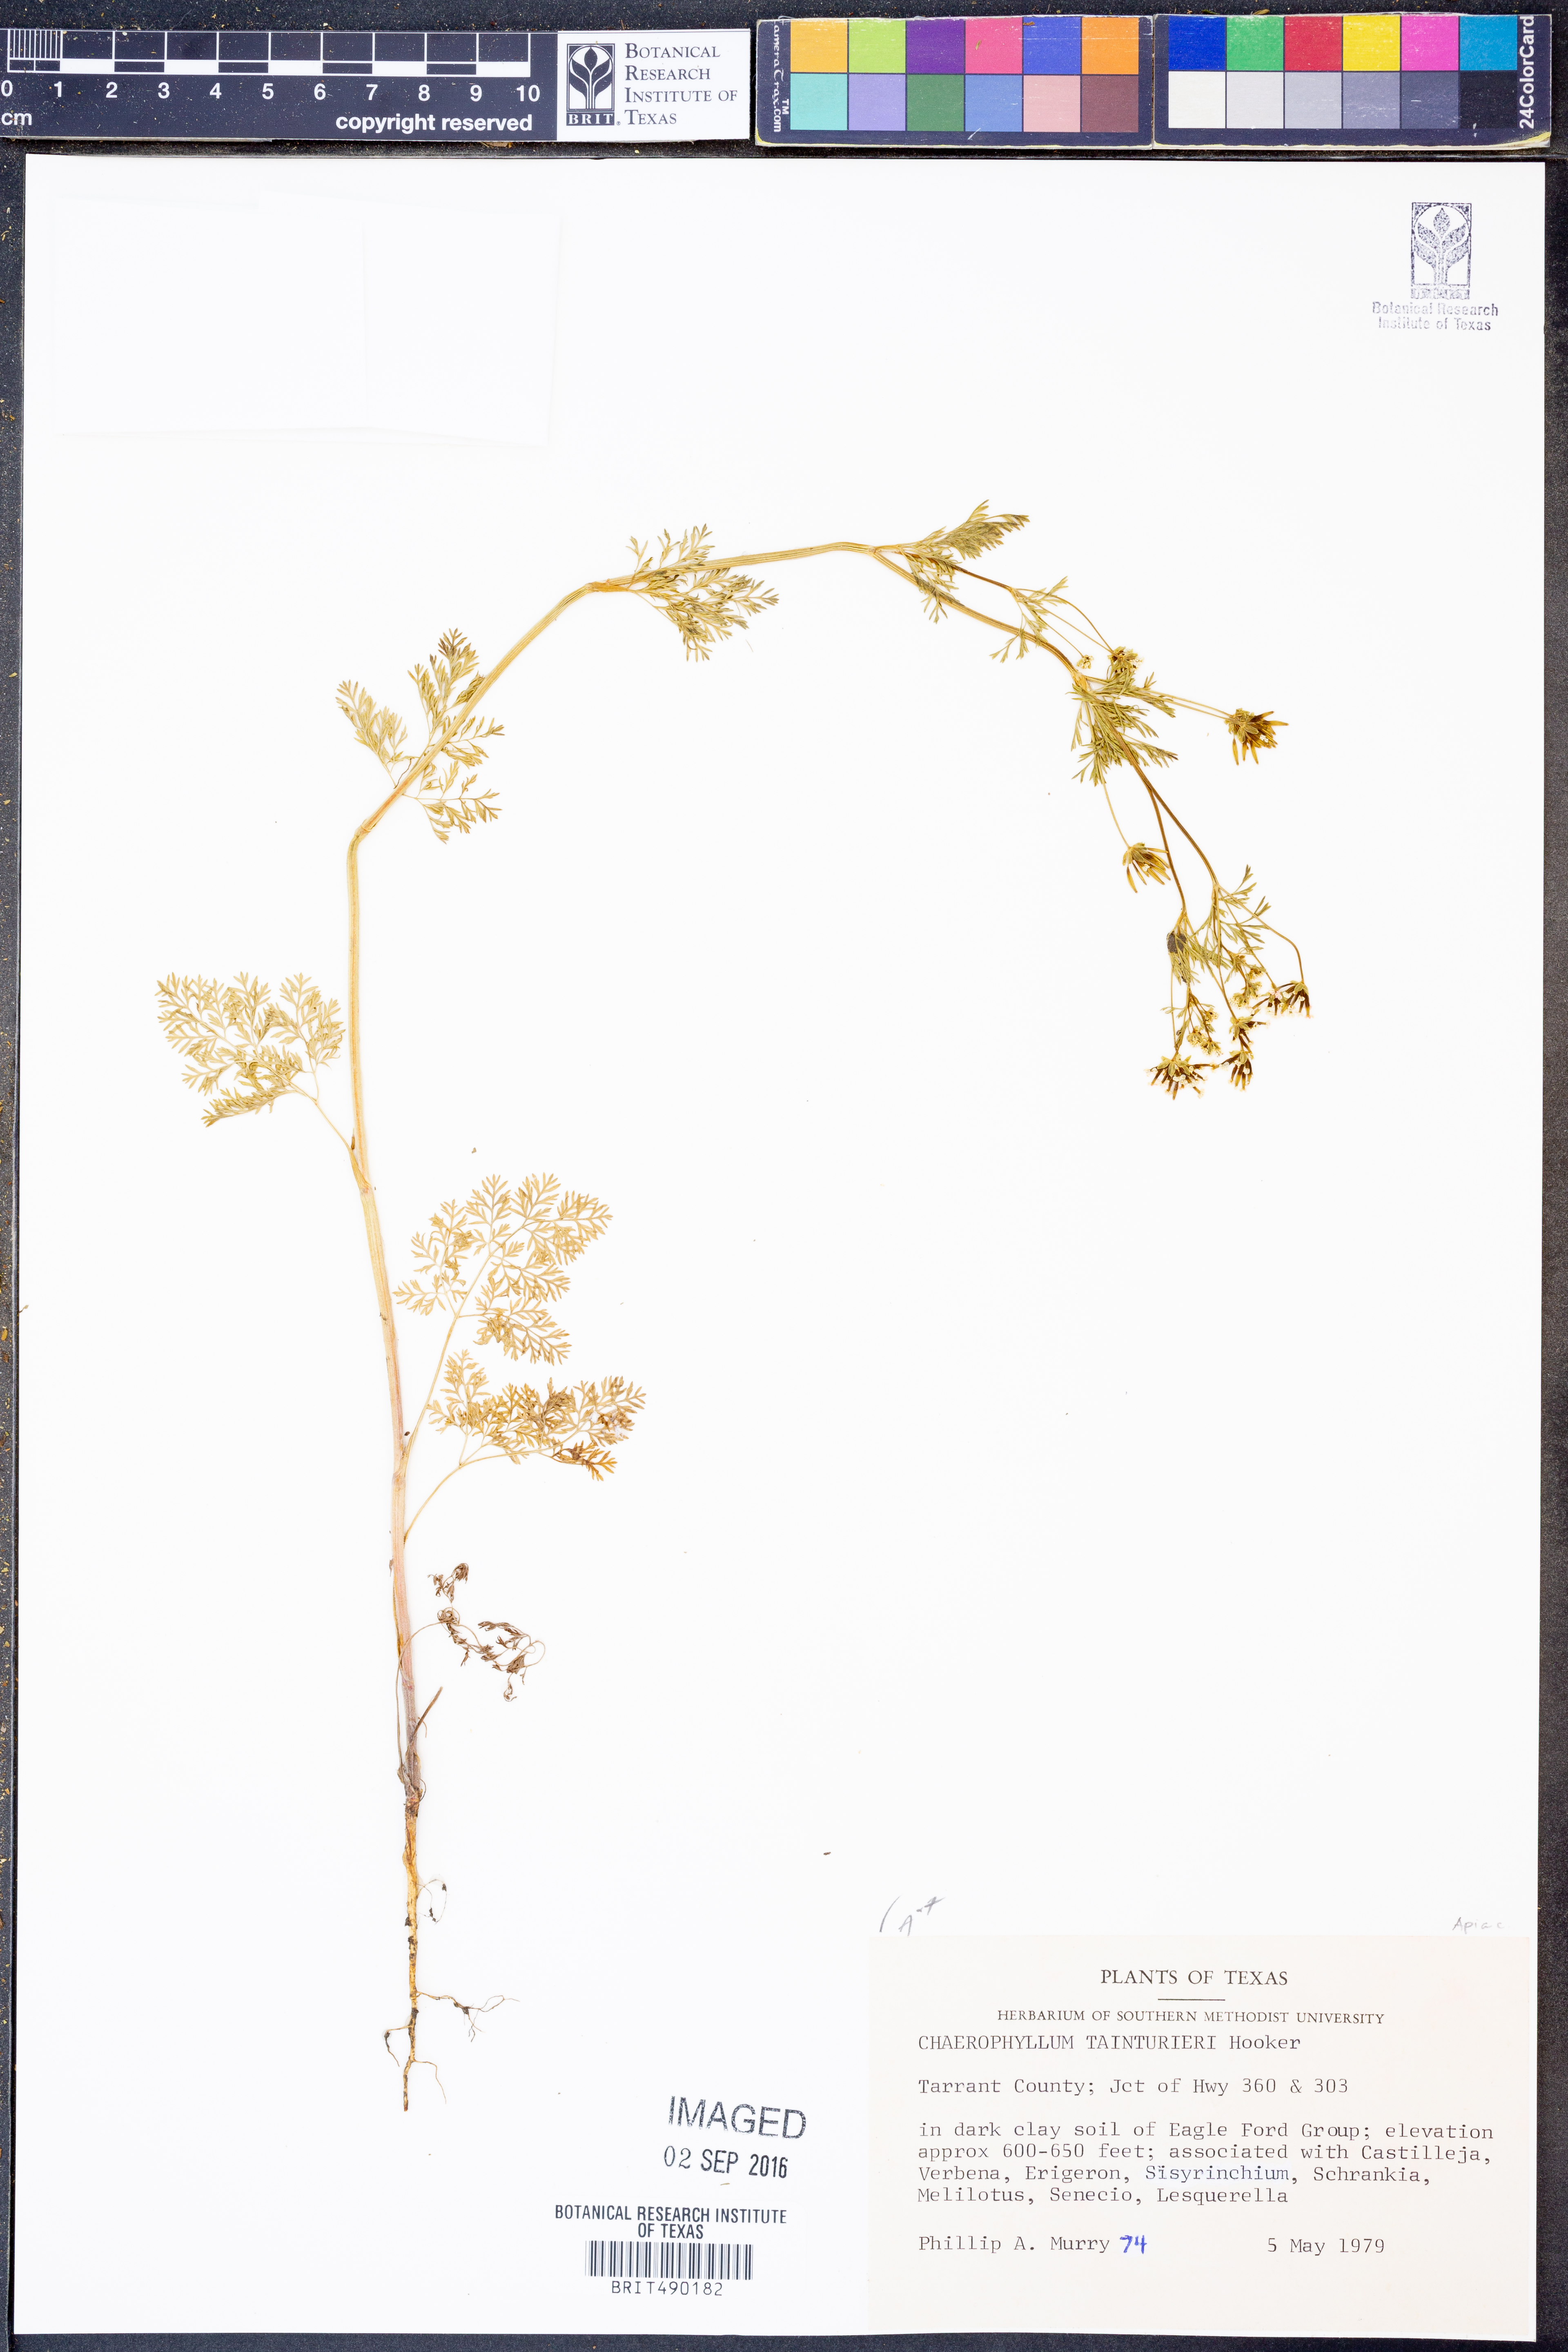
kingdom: Plantae
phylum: Tracheophyta
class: Magnoliopsida
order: Apiales
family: Apiaceae
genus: Chaerophyllum
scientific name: Chaerophyllum tainturieri
